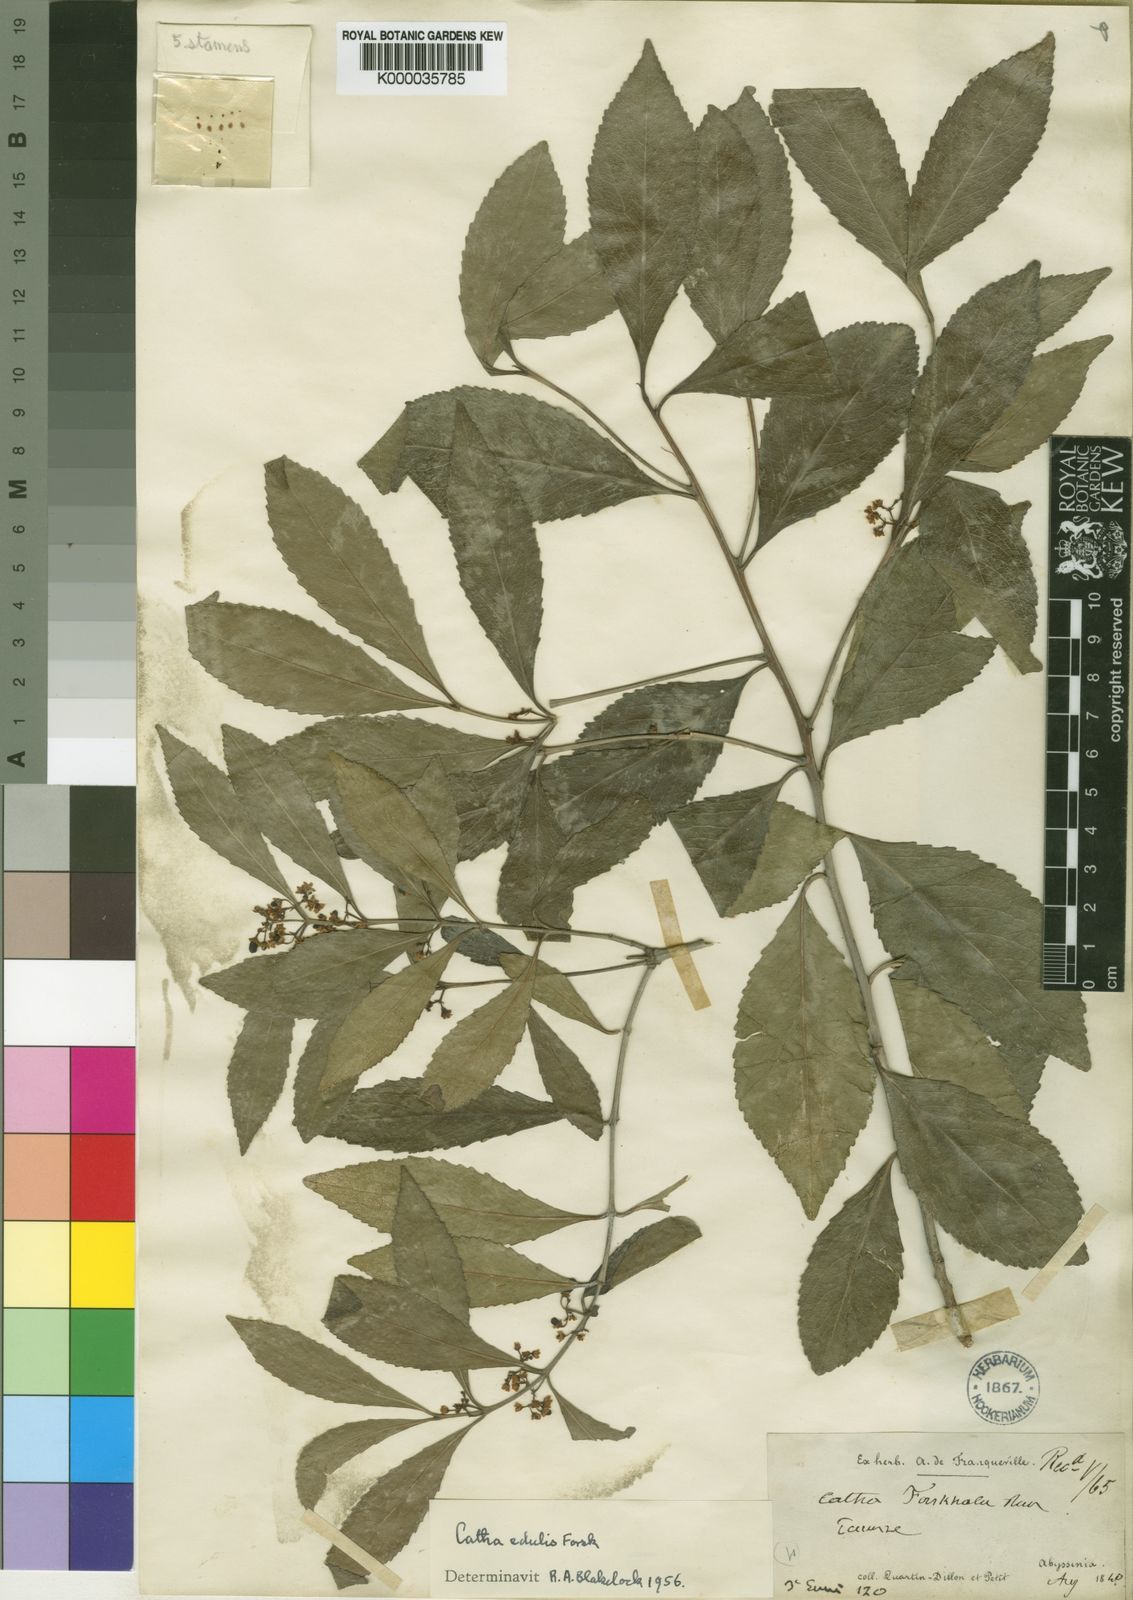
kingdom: Plantae
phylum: Tracheophyta
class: Magnoliopsida
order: Celastrales
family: Celastraceae
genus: Catha
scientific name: Catha edulis
